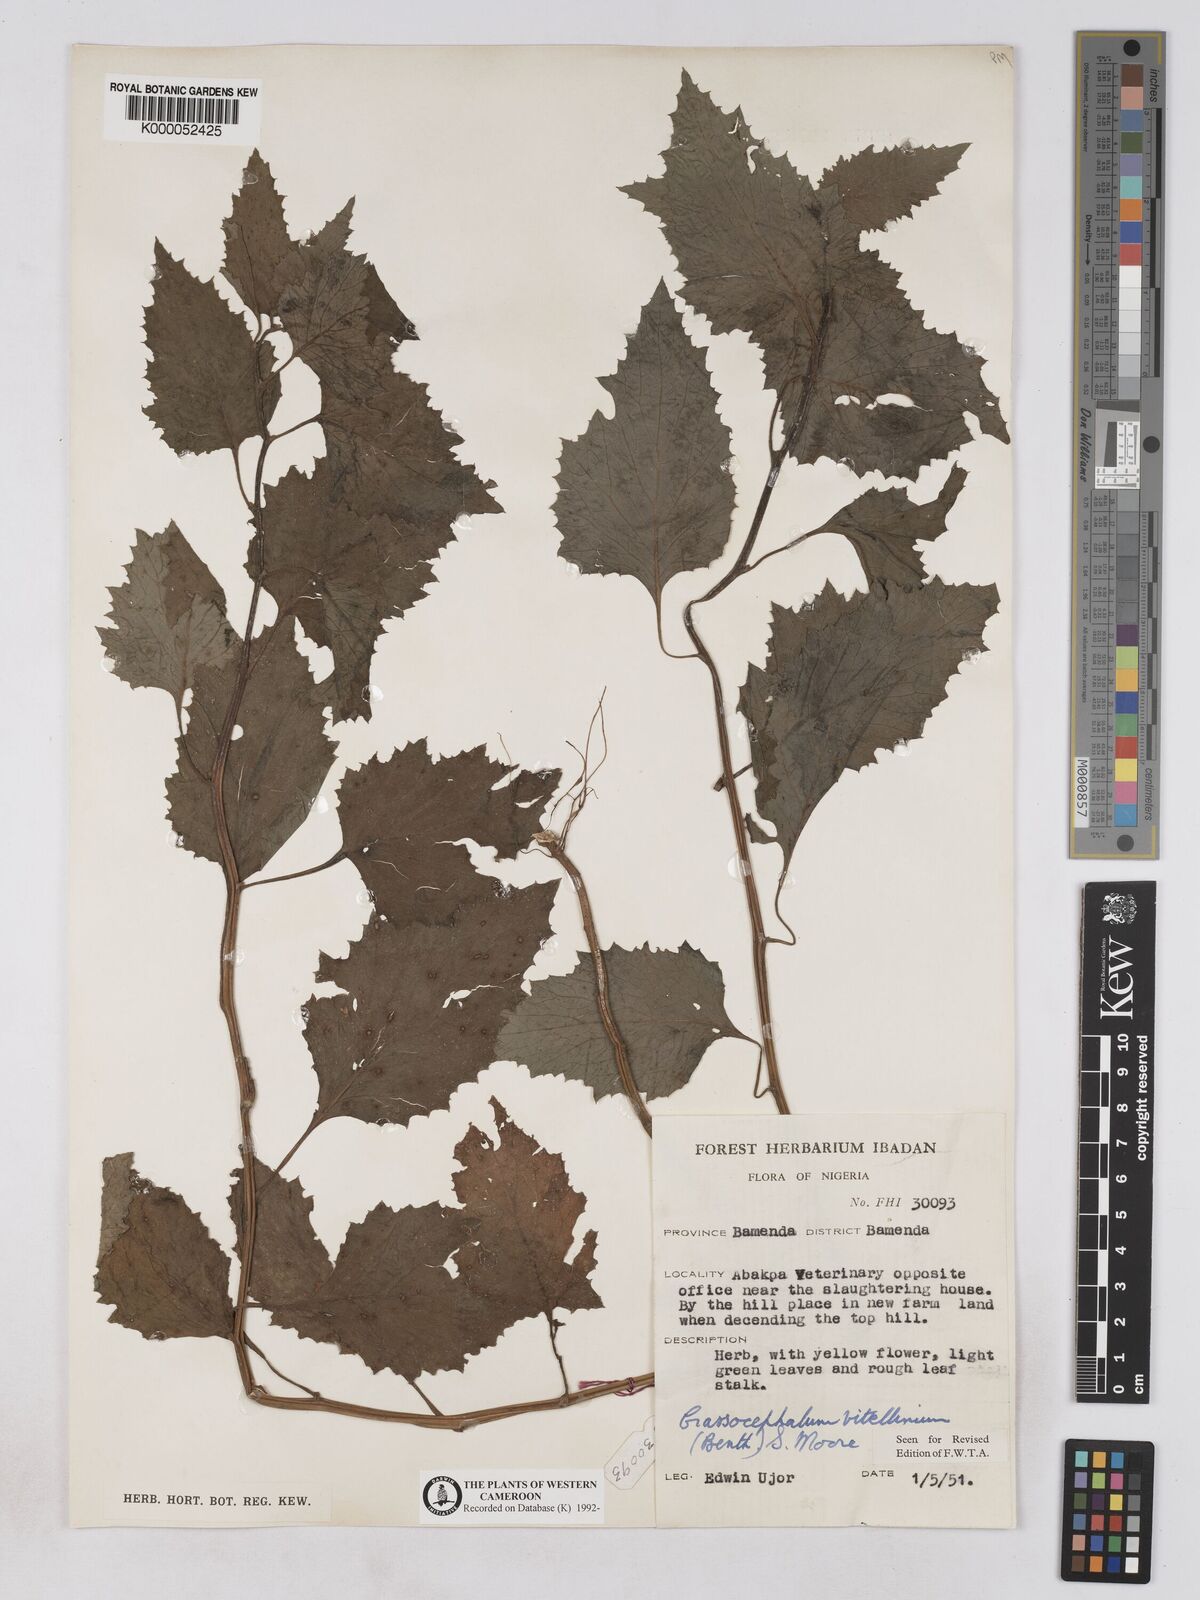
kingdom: Plantae
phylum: Tracheophyta
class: Magnoliopsida
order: Asterales
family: Asteraceae
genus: Crassocephalum
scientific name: Crassocephalum vitellinum
